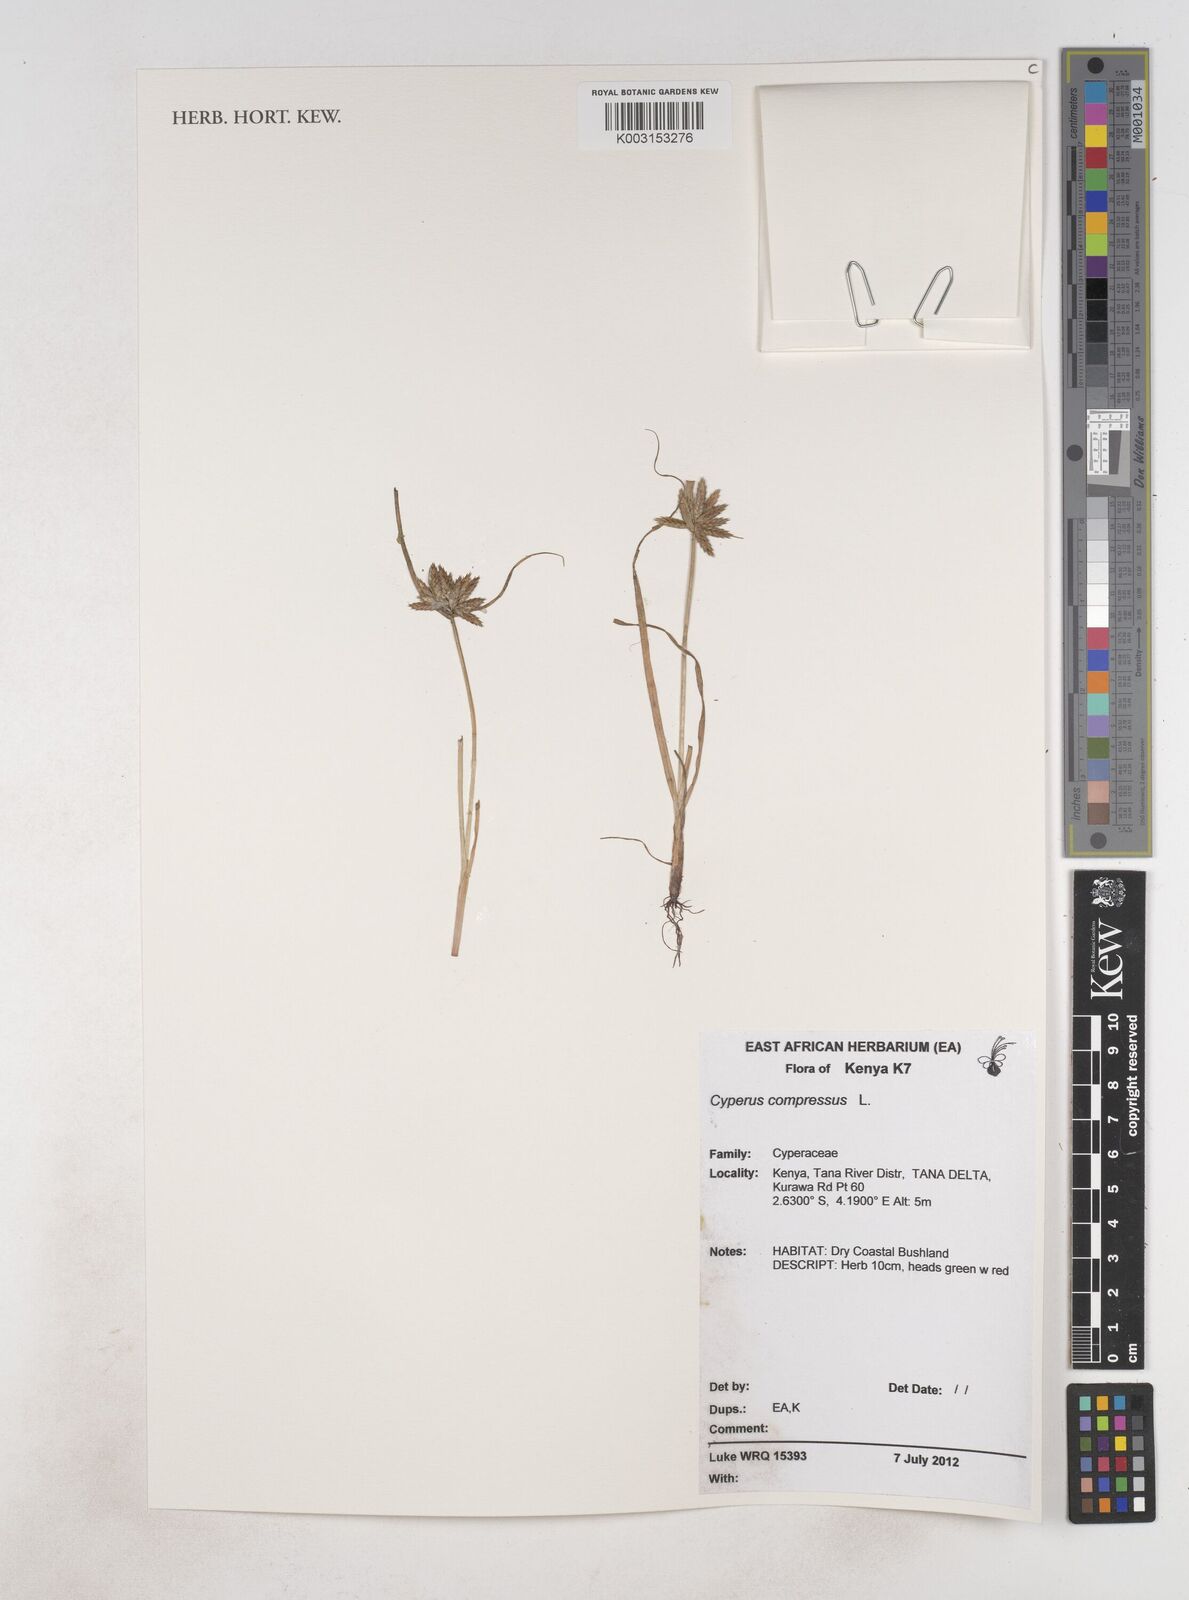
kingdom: Plantae
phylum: Tracheophyta
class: Liliopsida
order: Poales
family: Cyperaceae
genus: Cyperus
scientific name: Cyperus compressus
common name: Poorland flatsedge
